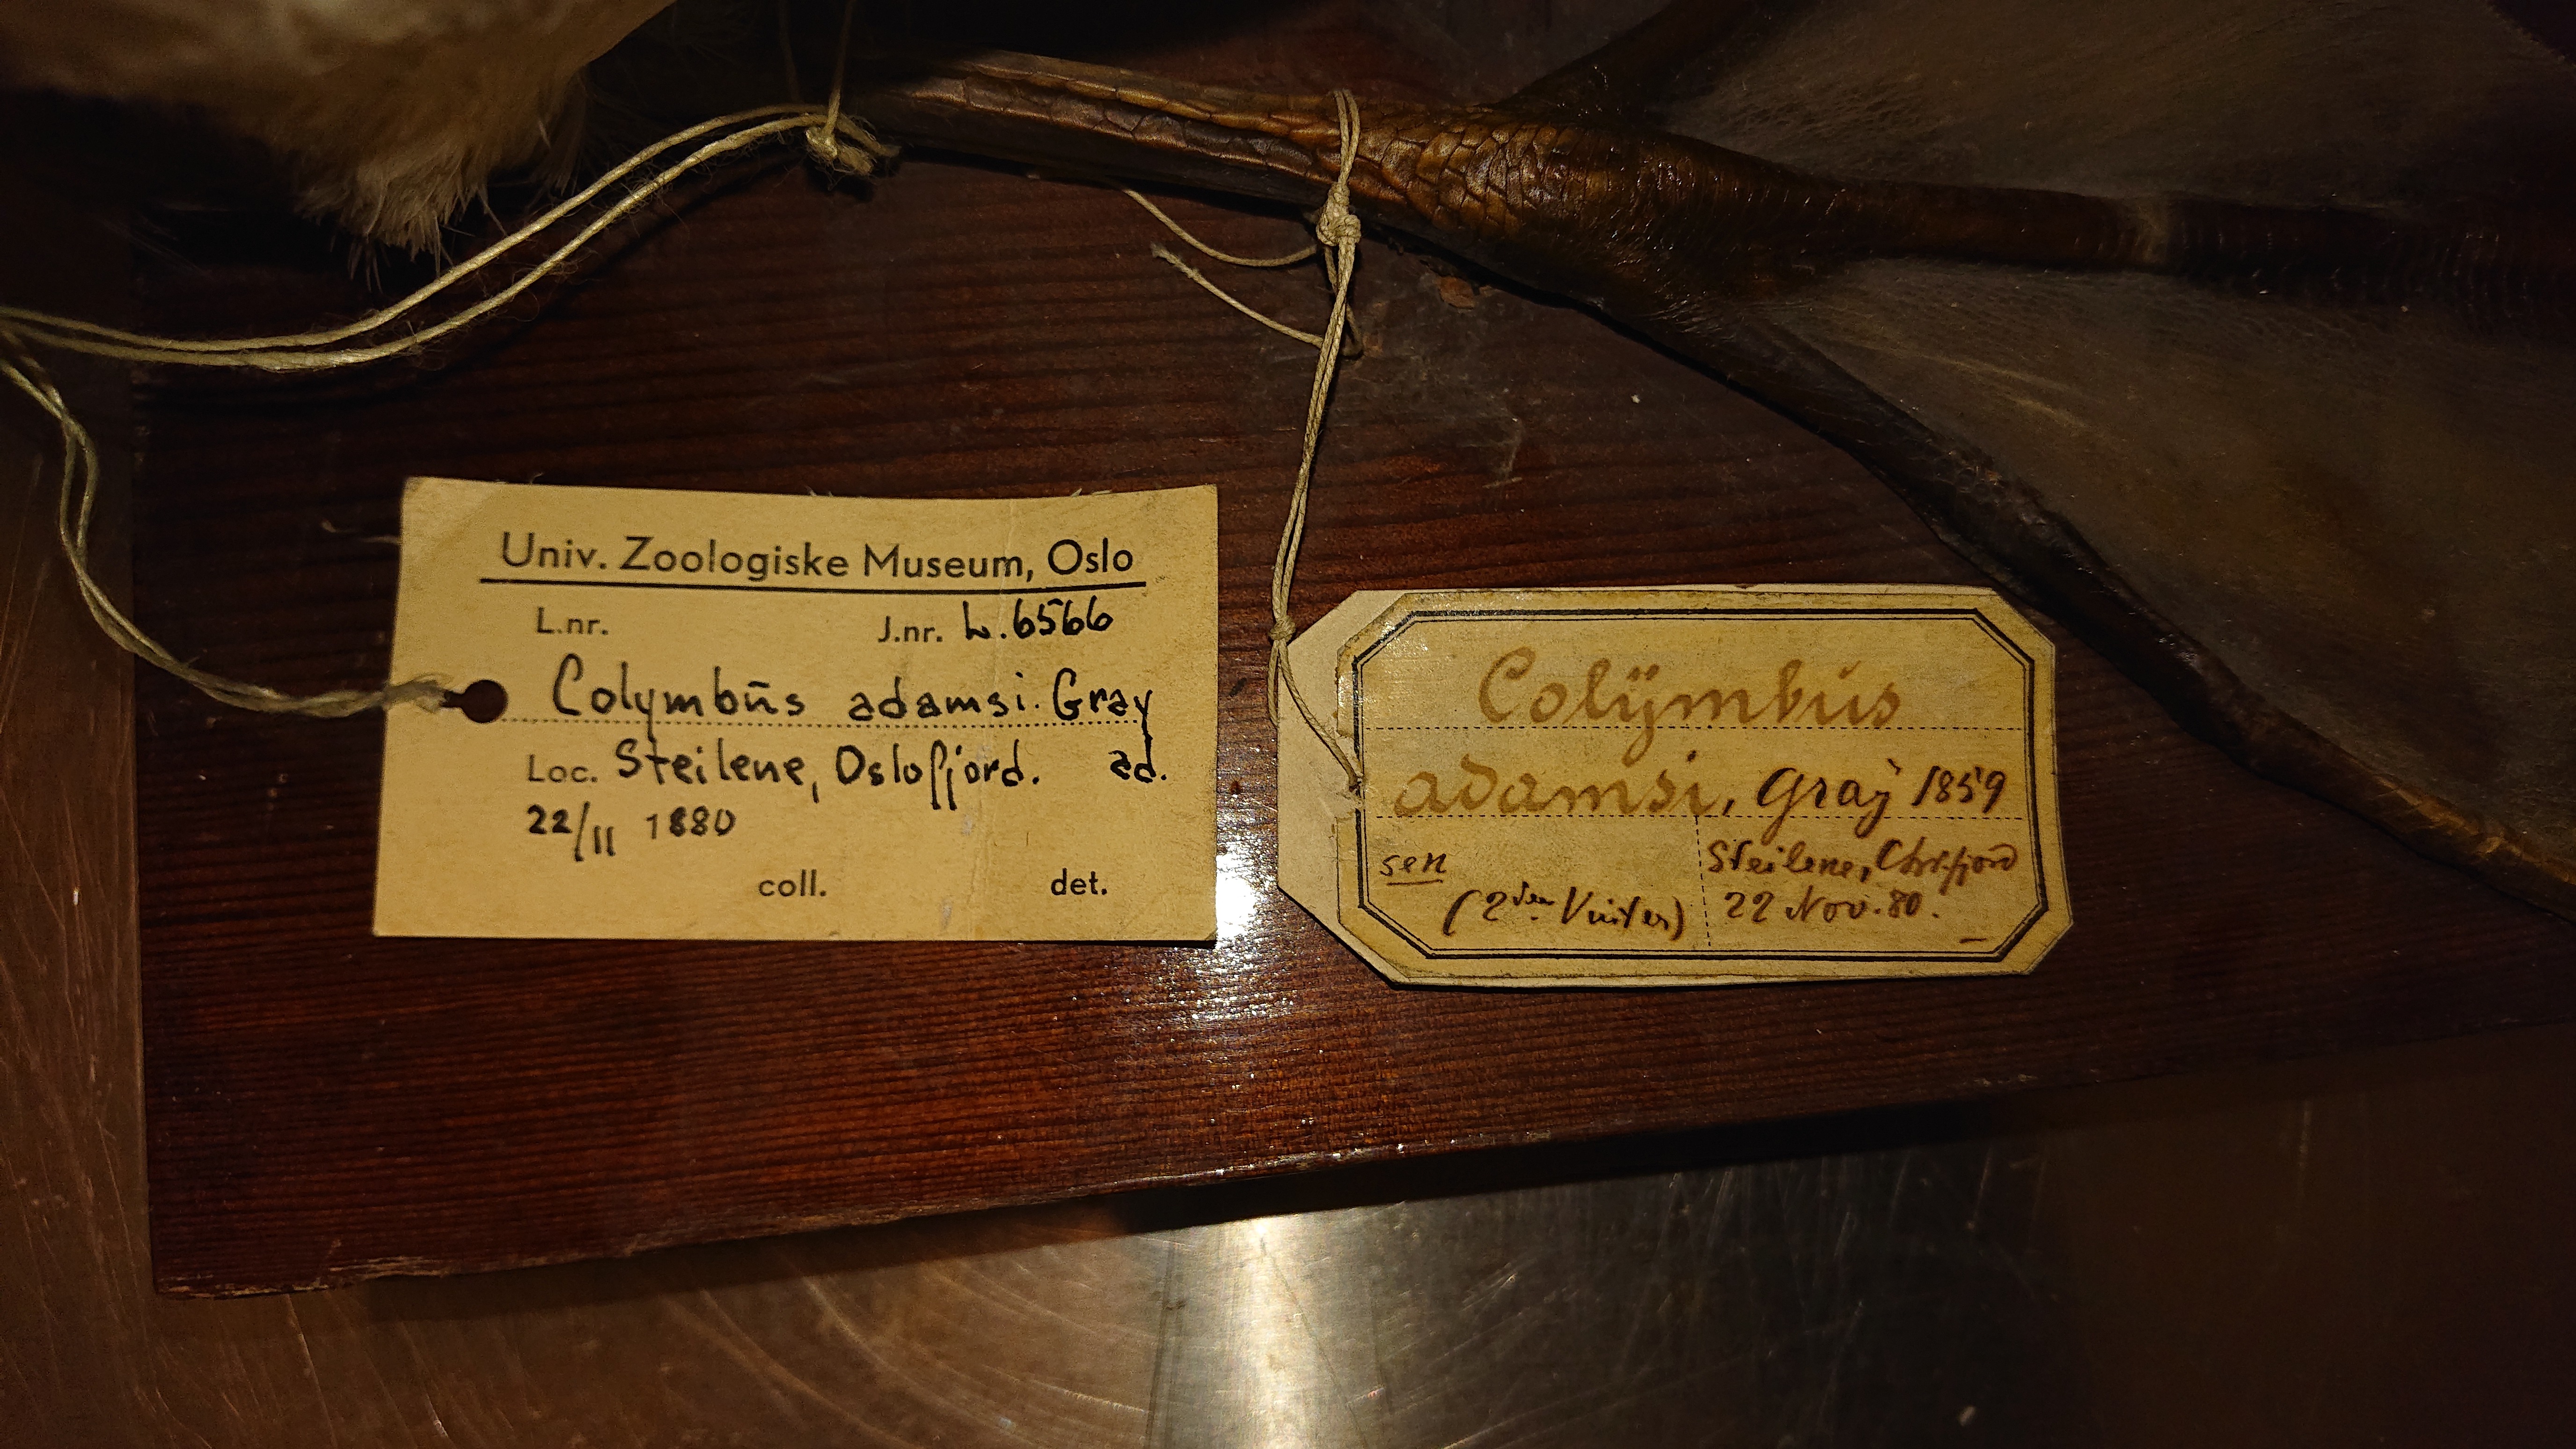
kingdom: Animalia
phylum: Chordata
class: Aves
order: Gaviiformes
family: Gaviidae
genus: Gavia
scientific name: Gavia adamsii
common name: Yellow-billed loon
